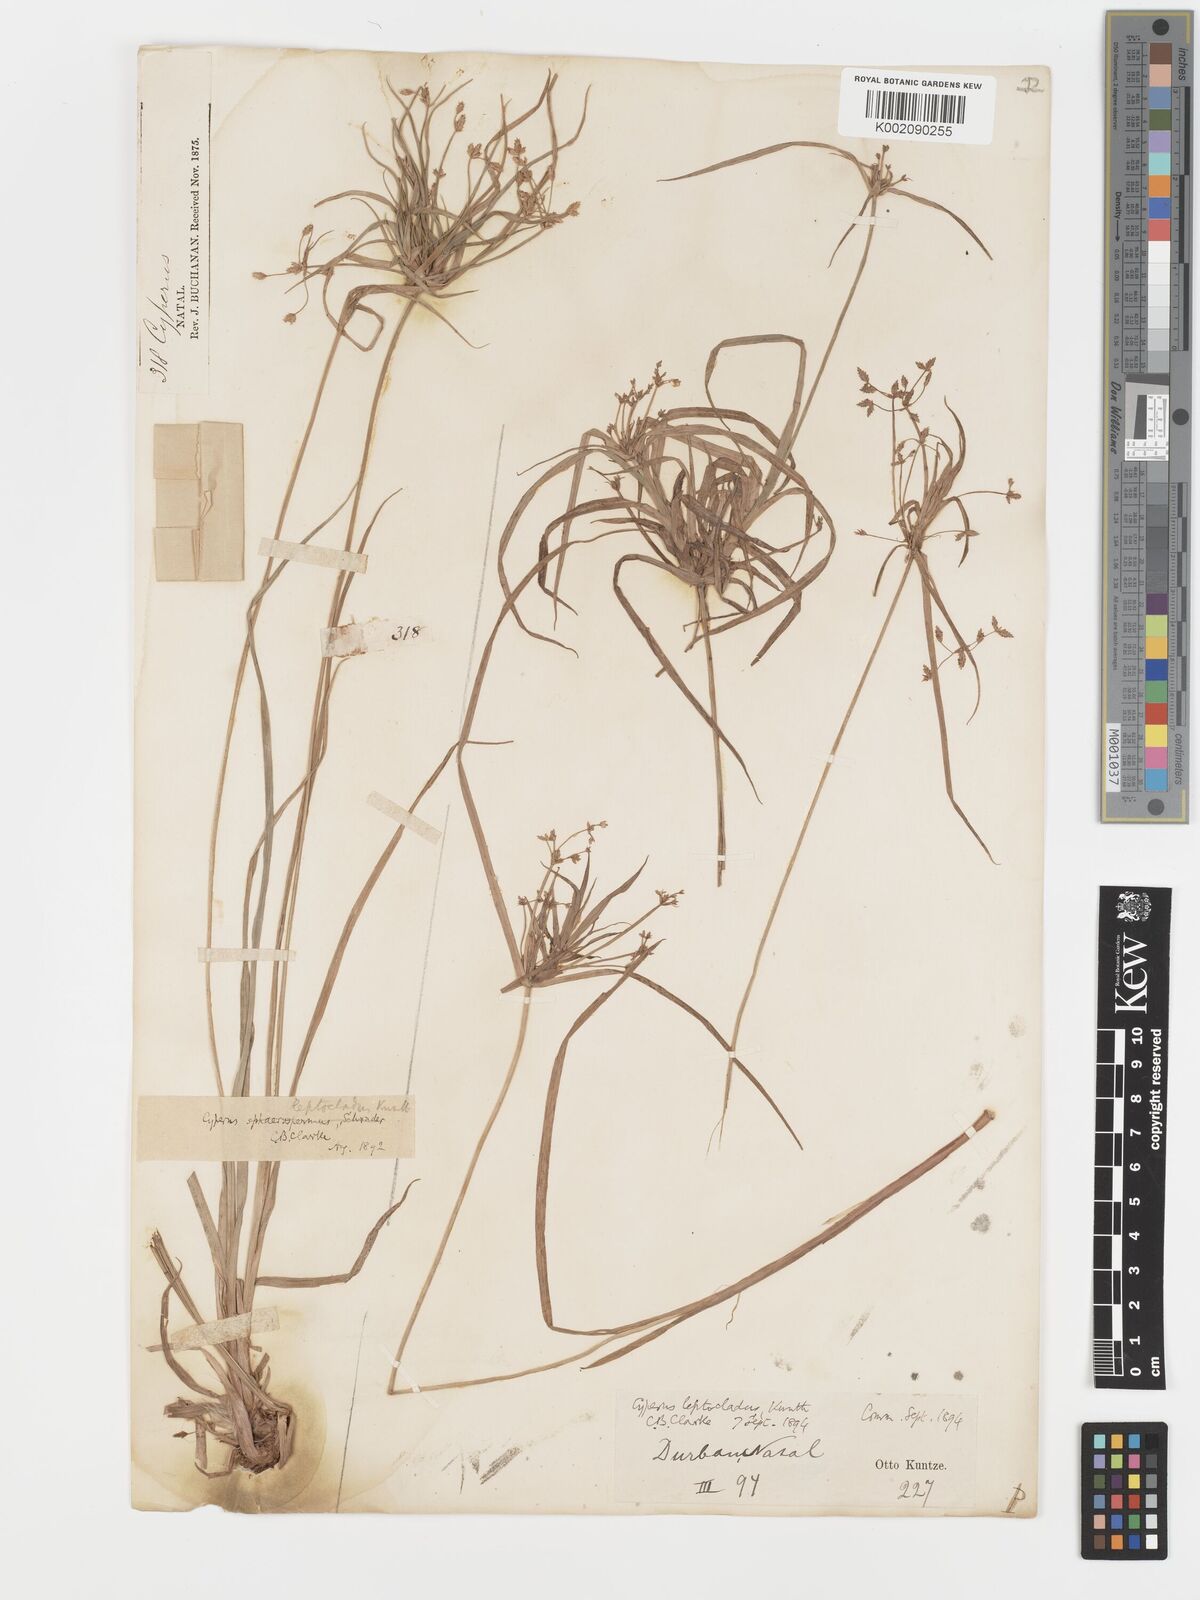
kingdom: Plantae
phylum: Tracheophyta
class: Liliopsida
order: Poales
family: Cyperaceae
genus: Cyperus
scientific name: Cyperus leptocladus
